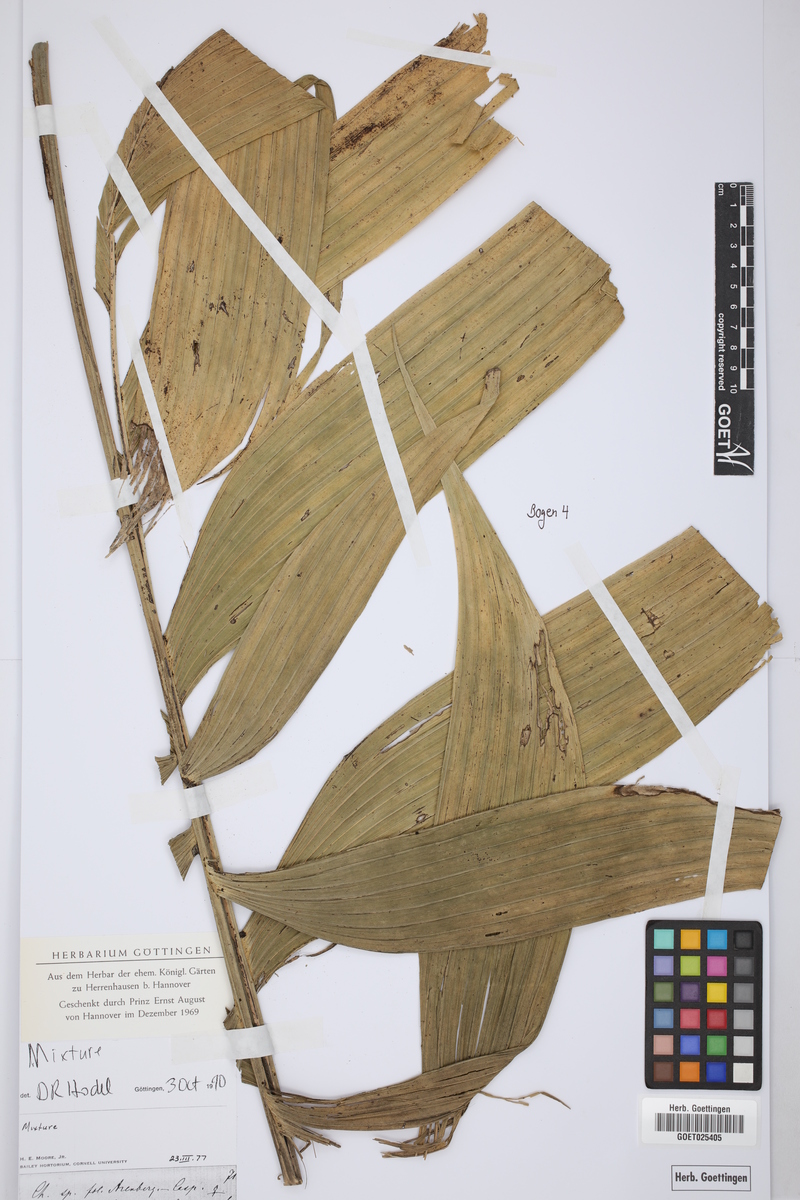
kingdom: Plantae
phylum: Tracheophyta
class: Liliopsida
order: Arecales
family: Arecaceae
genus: Chamaedrea
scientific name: Chamaedrea
